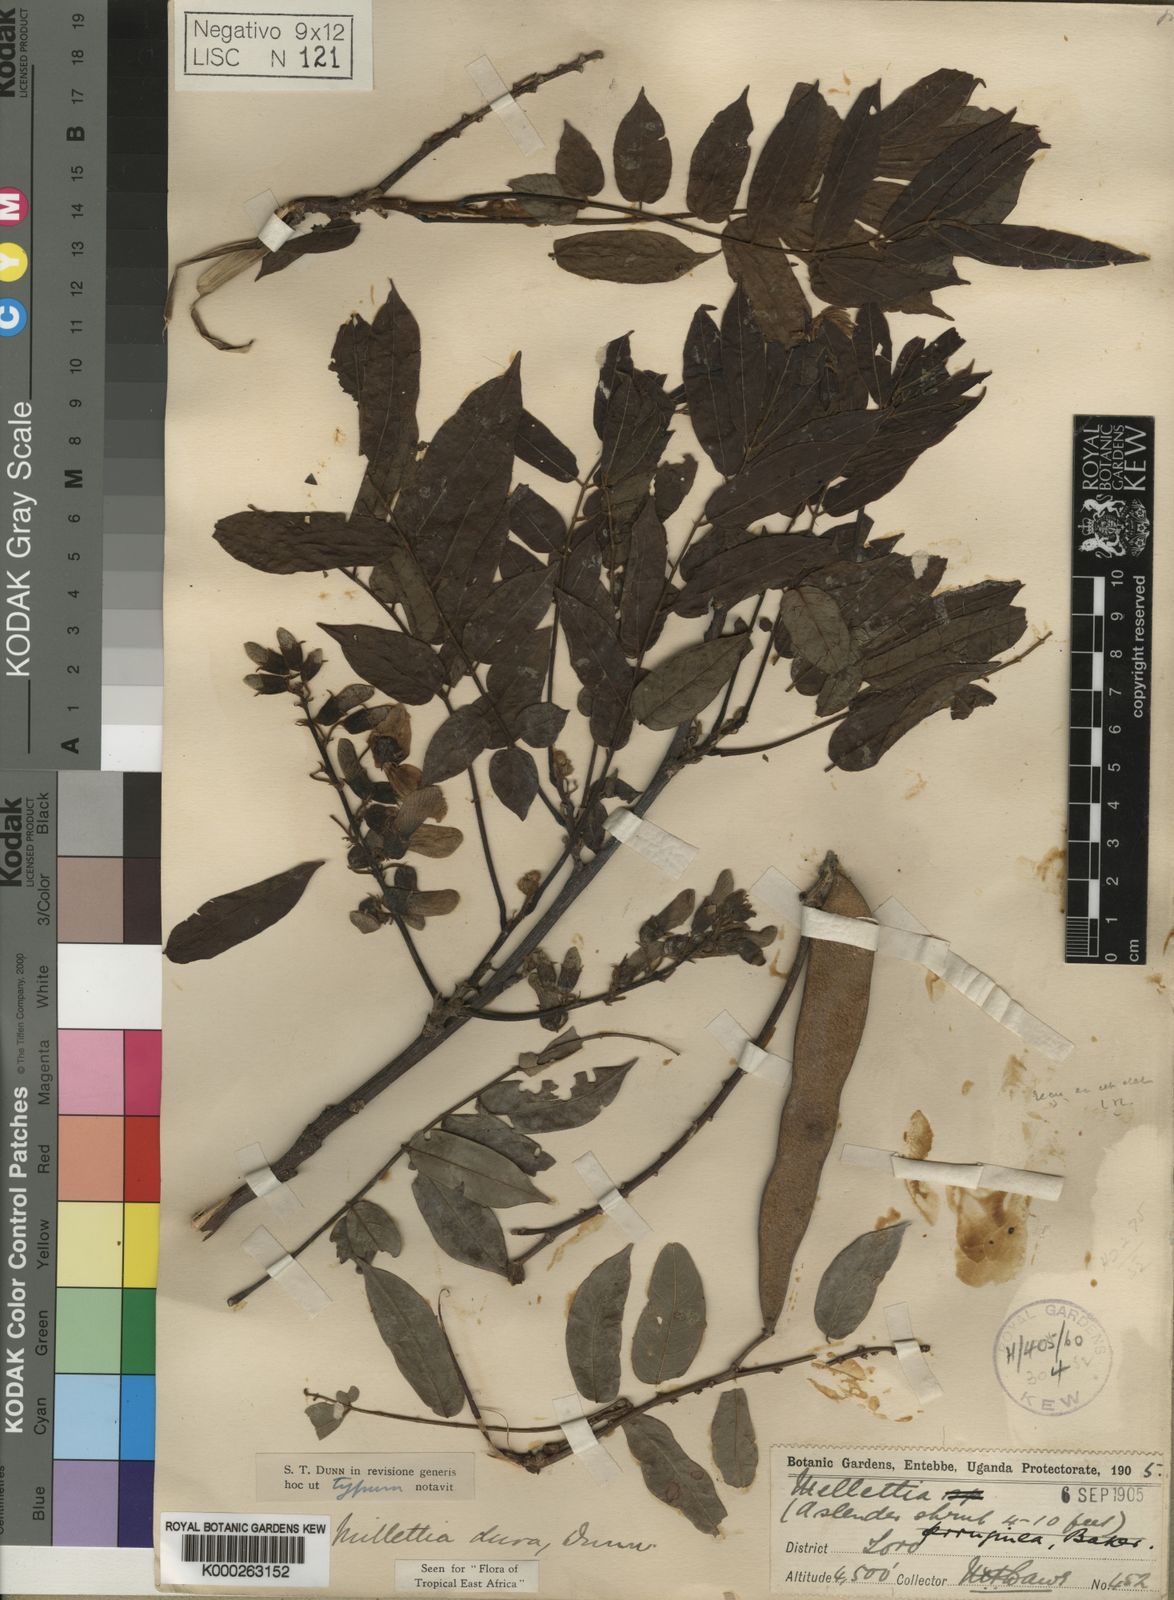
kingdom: Plantae
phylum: Tracheophyta
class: Magnoliopsida
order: Fabales
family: Fabaceae
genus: Millettia
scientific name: Millettia dura
